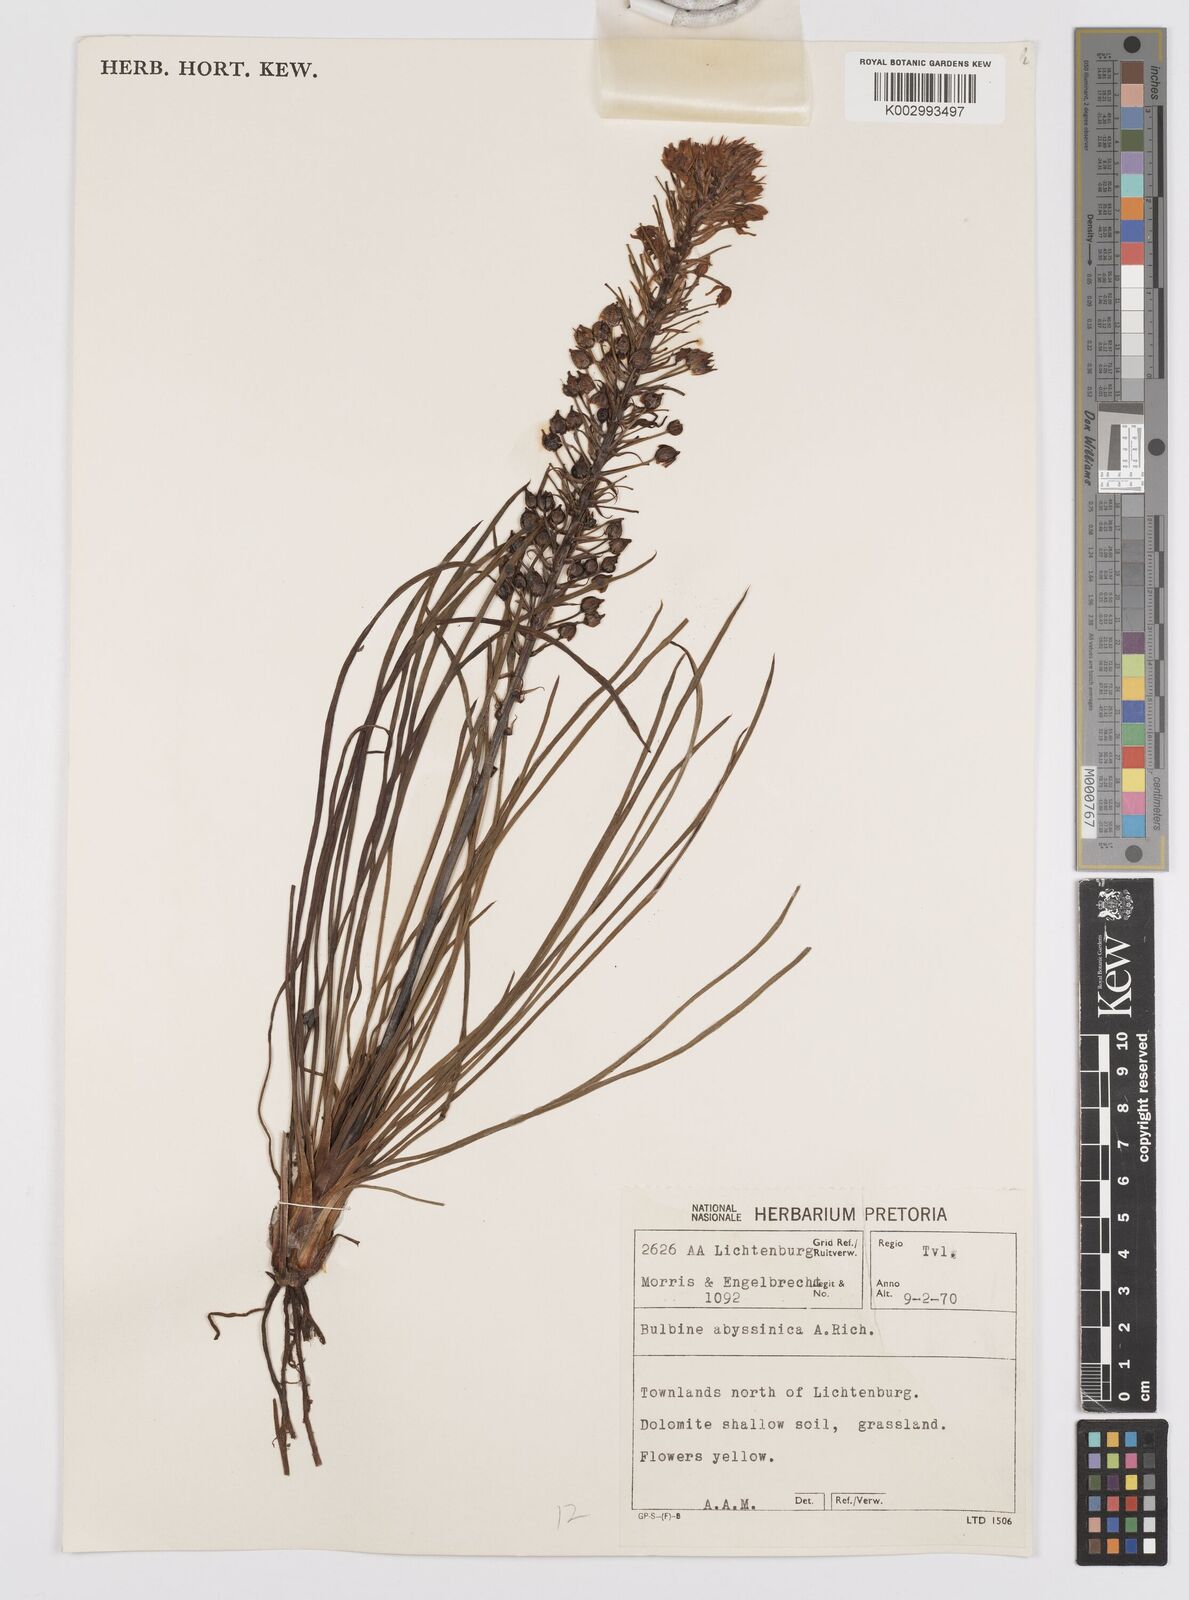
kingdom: Plantae
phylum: Tracheophyta
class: Liliopsida
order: Asparagales
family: Asphodelaceae
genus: Bulbine
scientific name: Bulbine abyssinica
